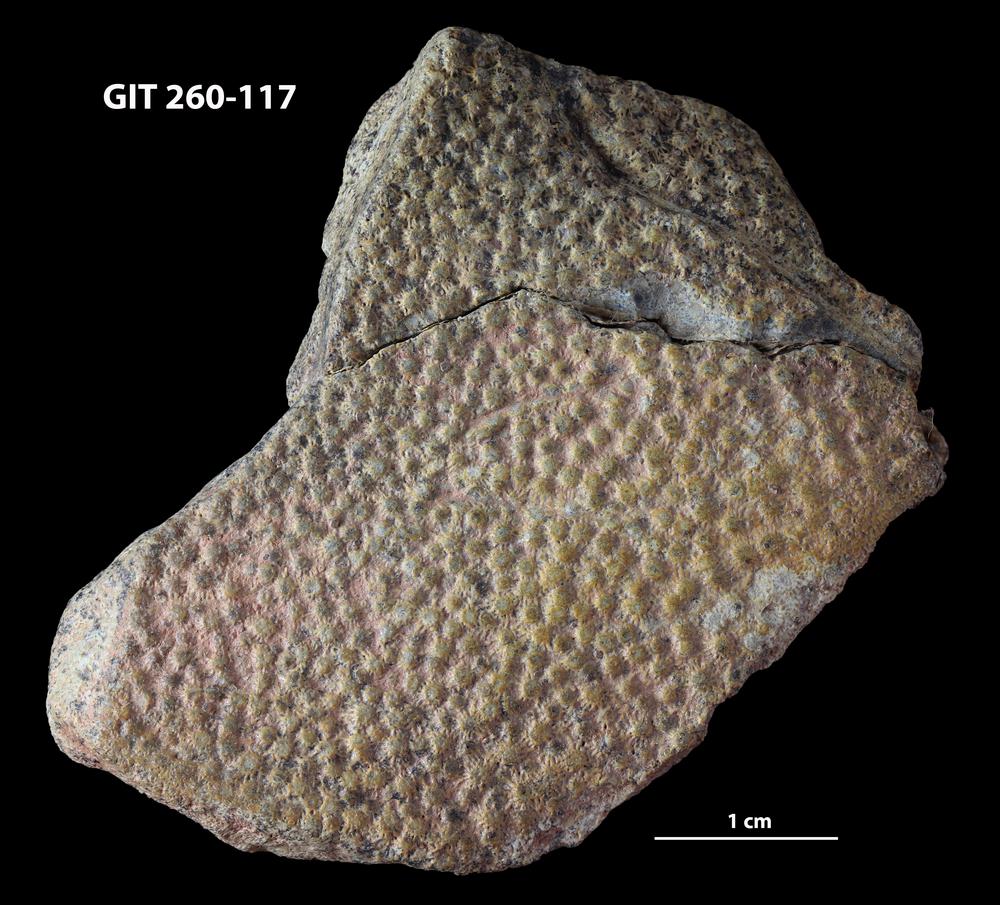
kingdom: Animalia
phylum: Chordata
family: Homostiidae
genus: Homostius
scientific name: Homostius
